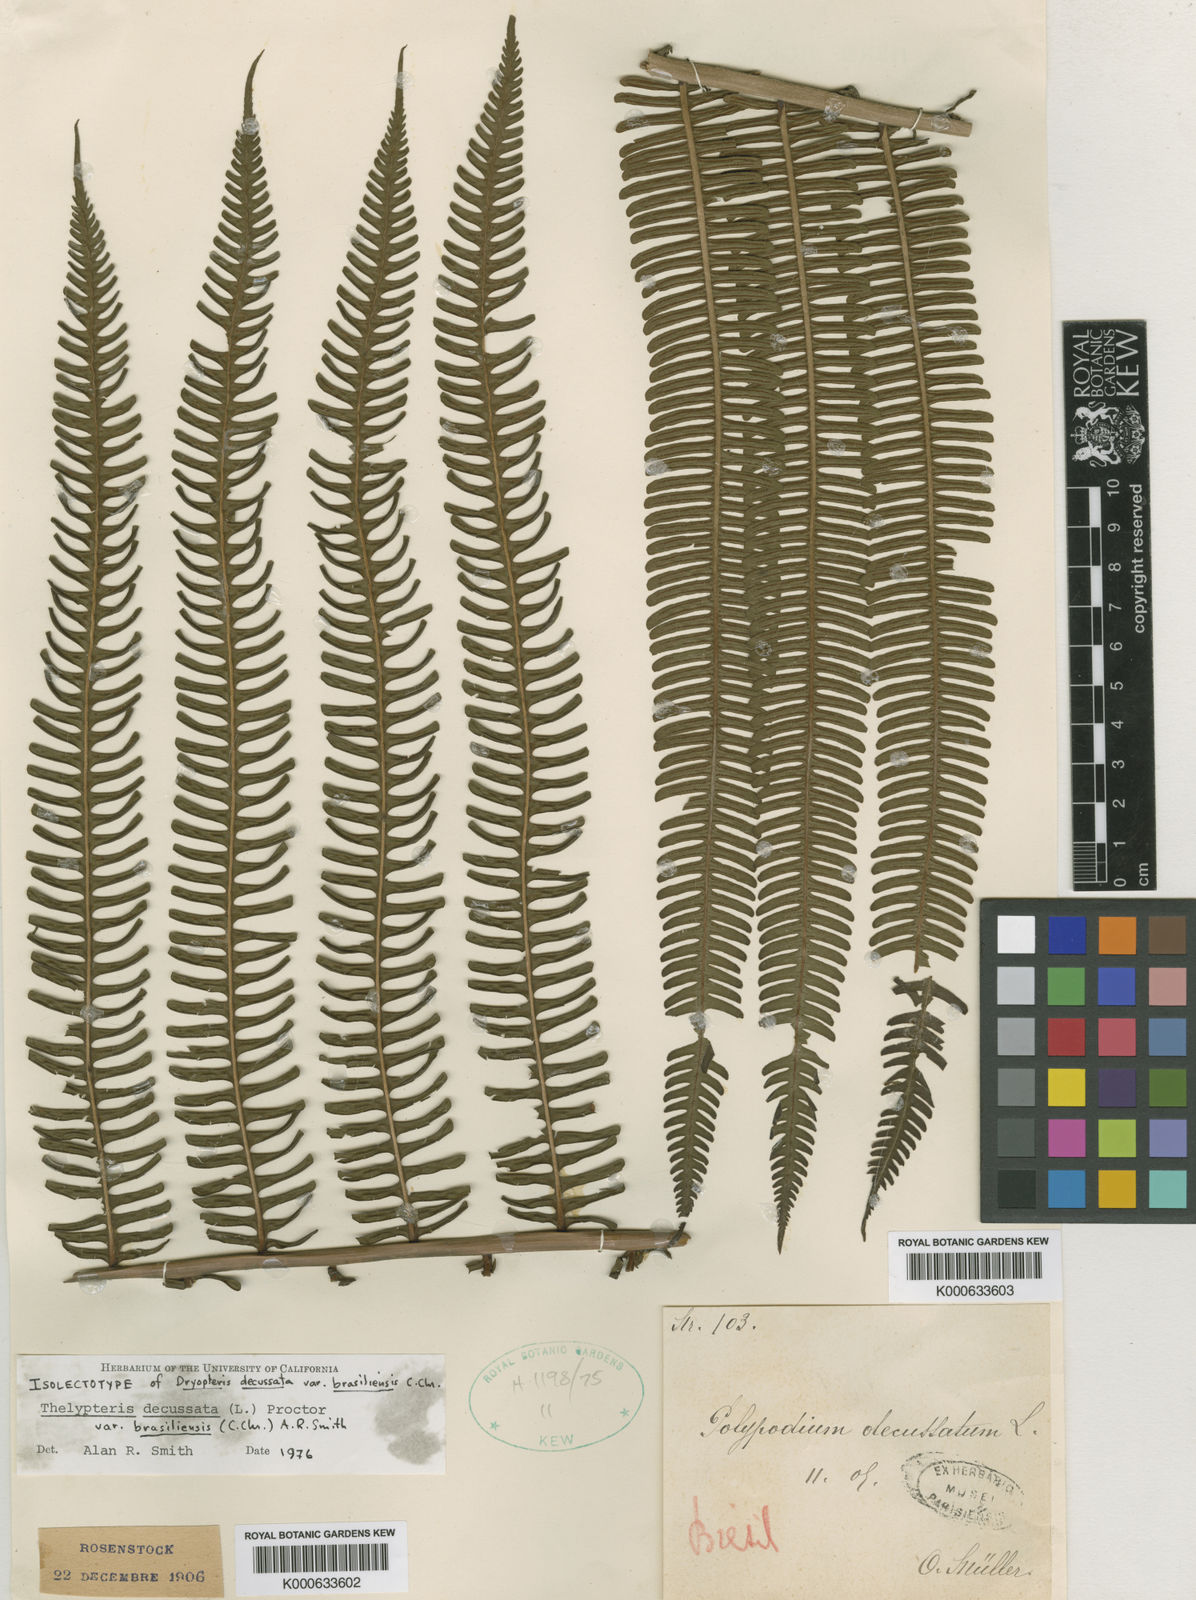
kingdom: Plantae
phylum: Tracheophyta
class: Polypodiopsida
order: Polypodiales
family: Thelypteridaceae
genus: Glaphyropteris
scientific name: Glaphyropteris
